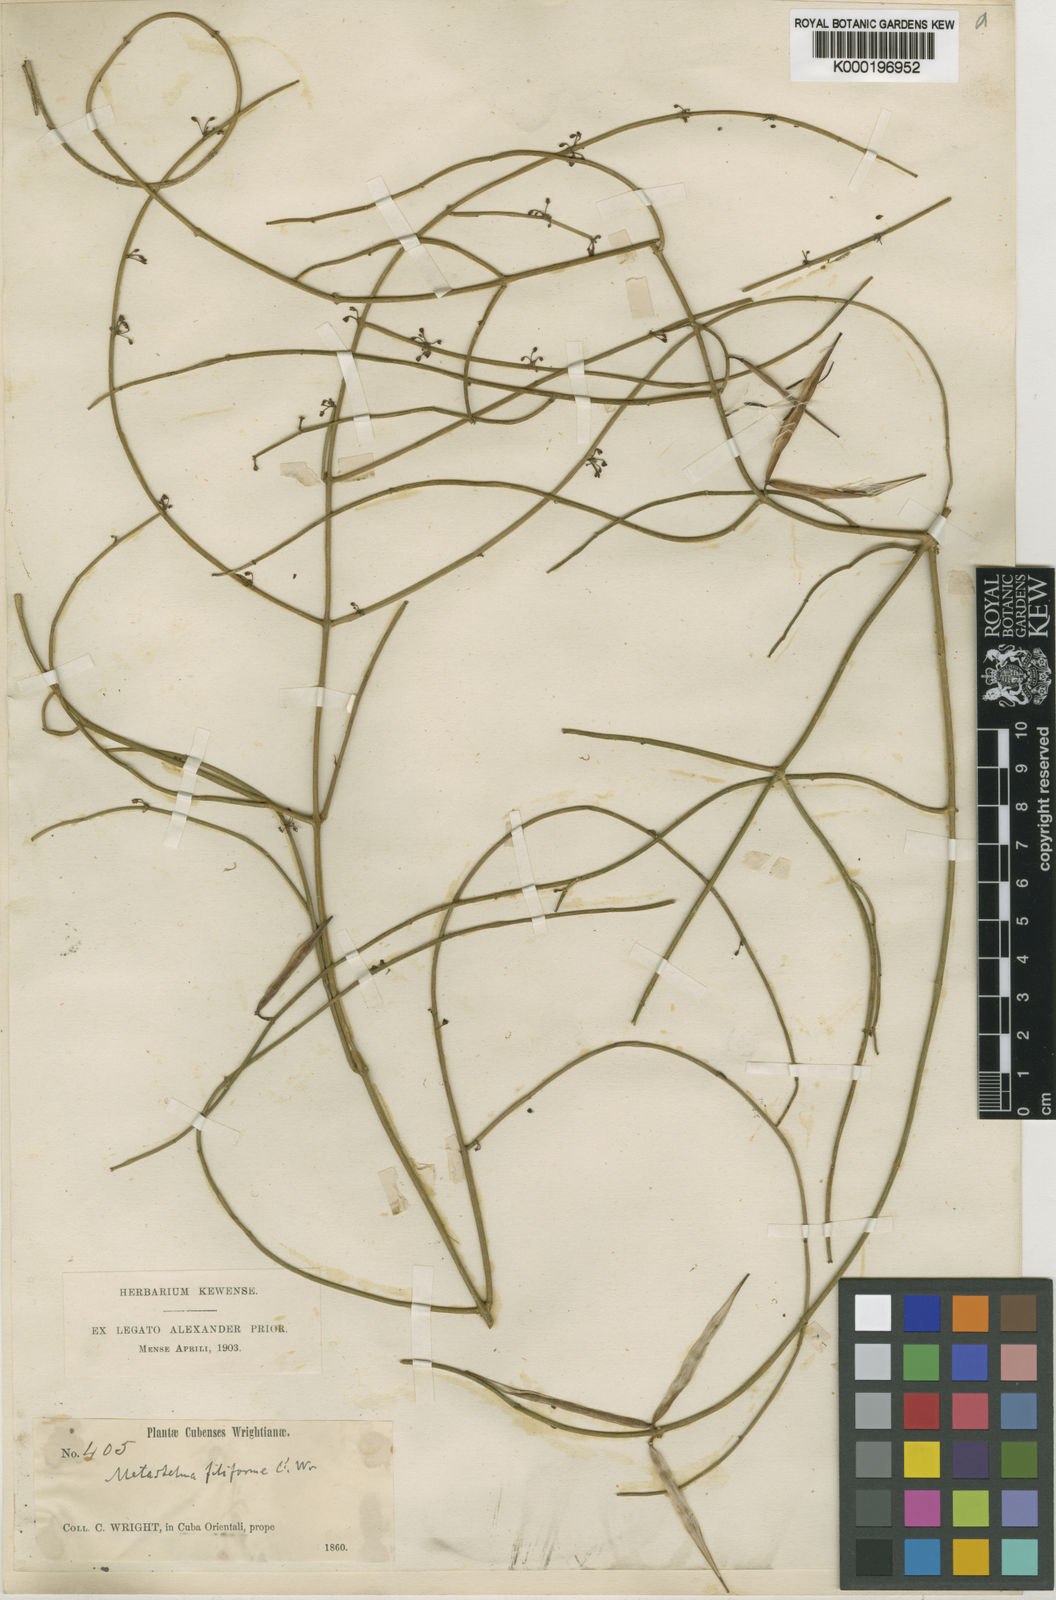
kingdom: Plantae
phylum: Tracheophyta
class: Magnoliopsida
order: Gentianales
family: Apocynaceae
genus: Orthosia
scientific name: Orthosia scoparia
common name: Leafless swallow-wort
